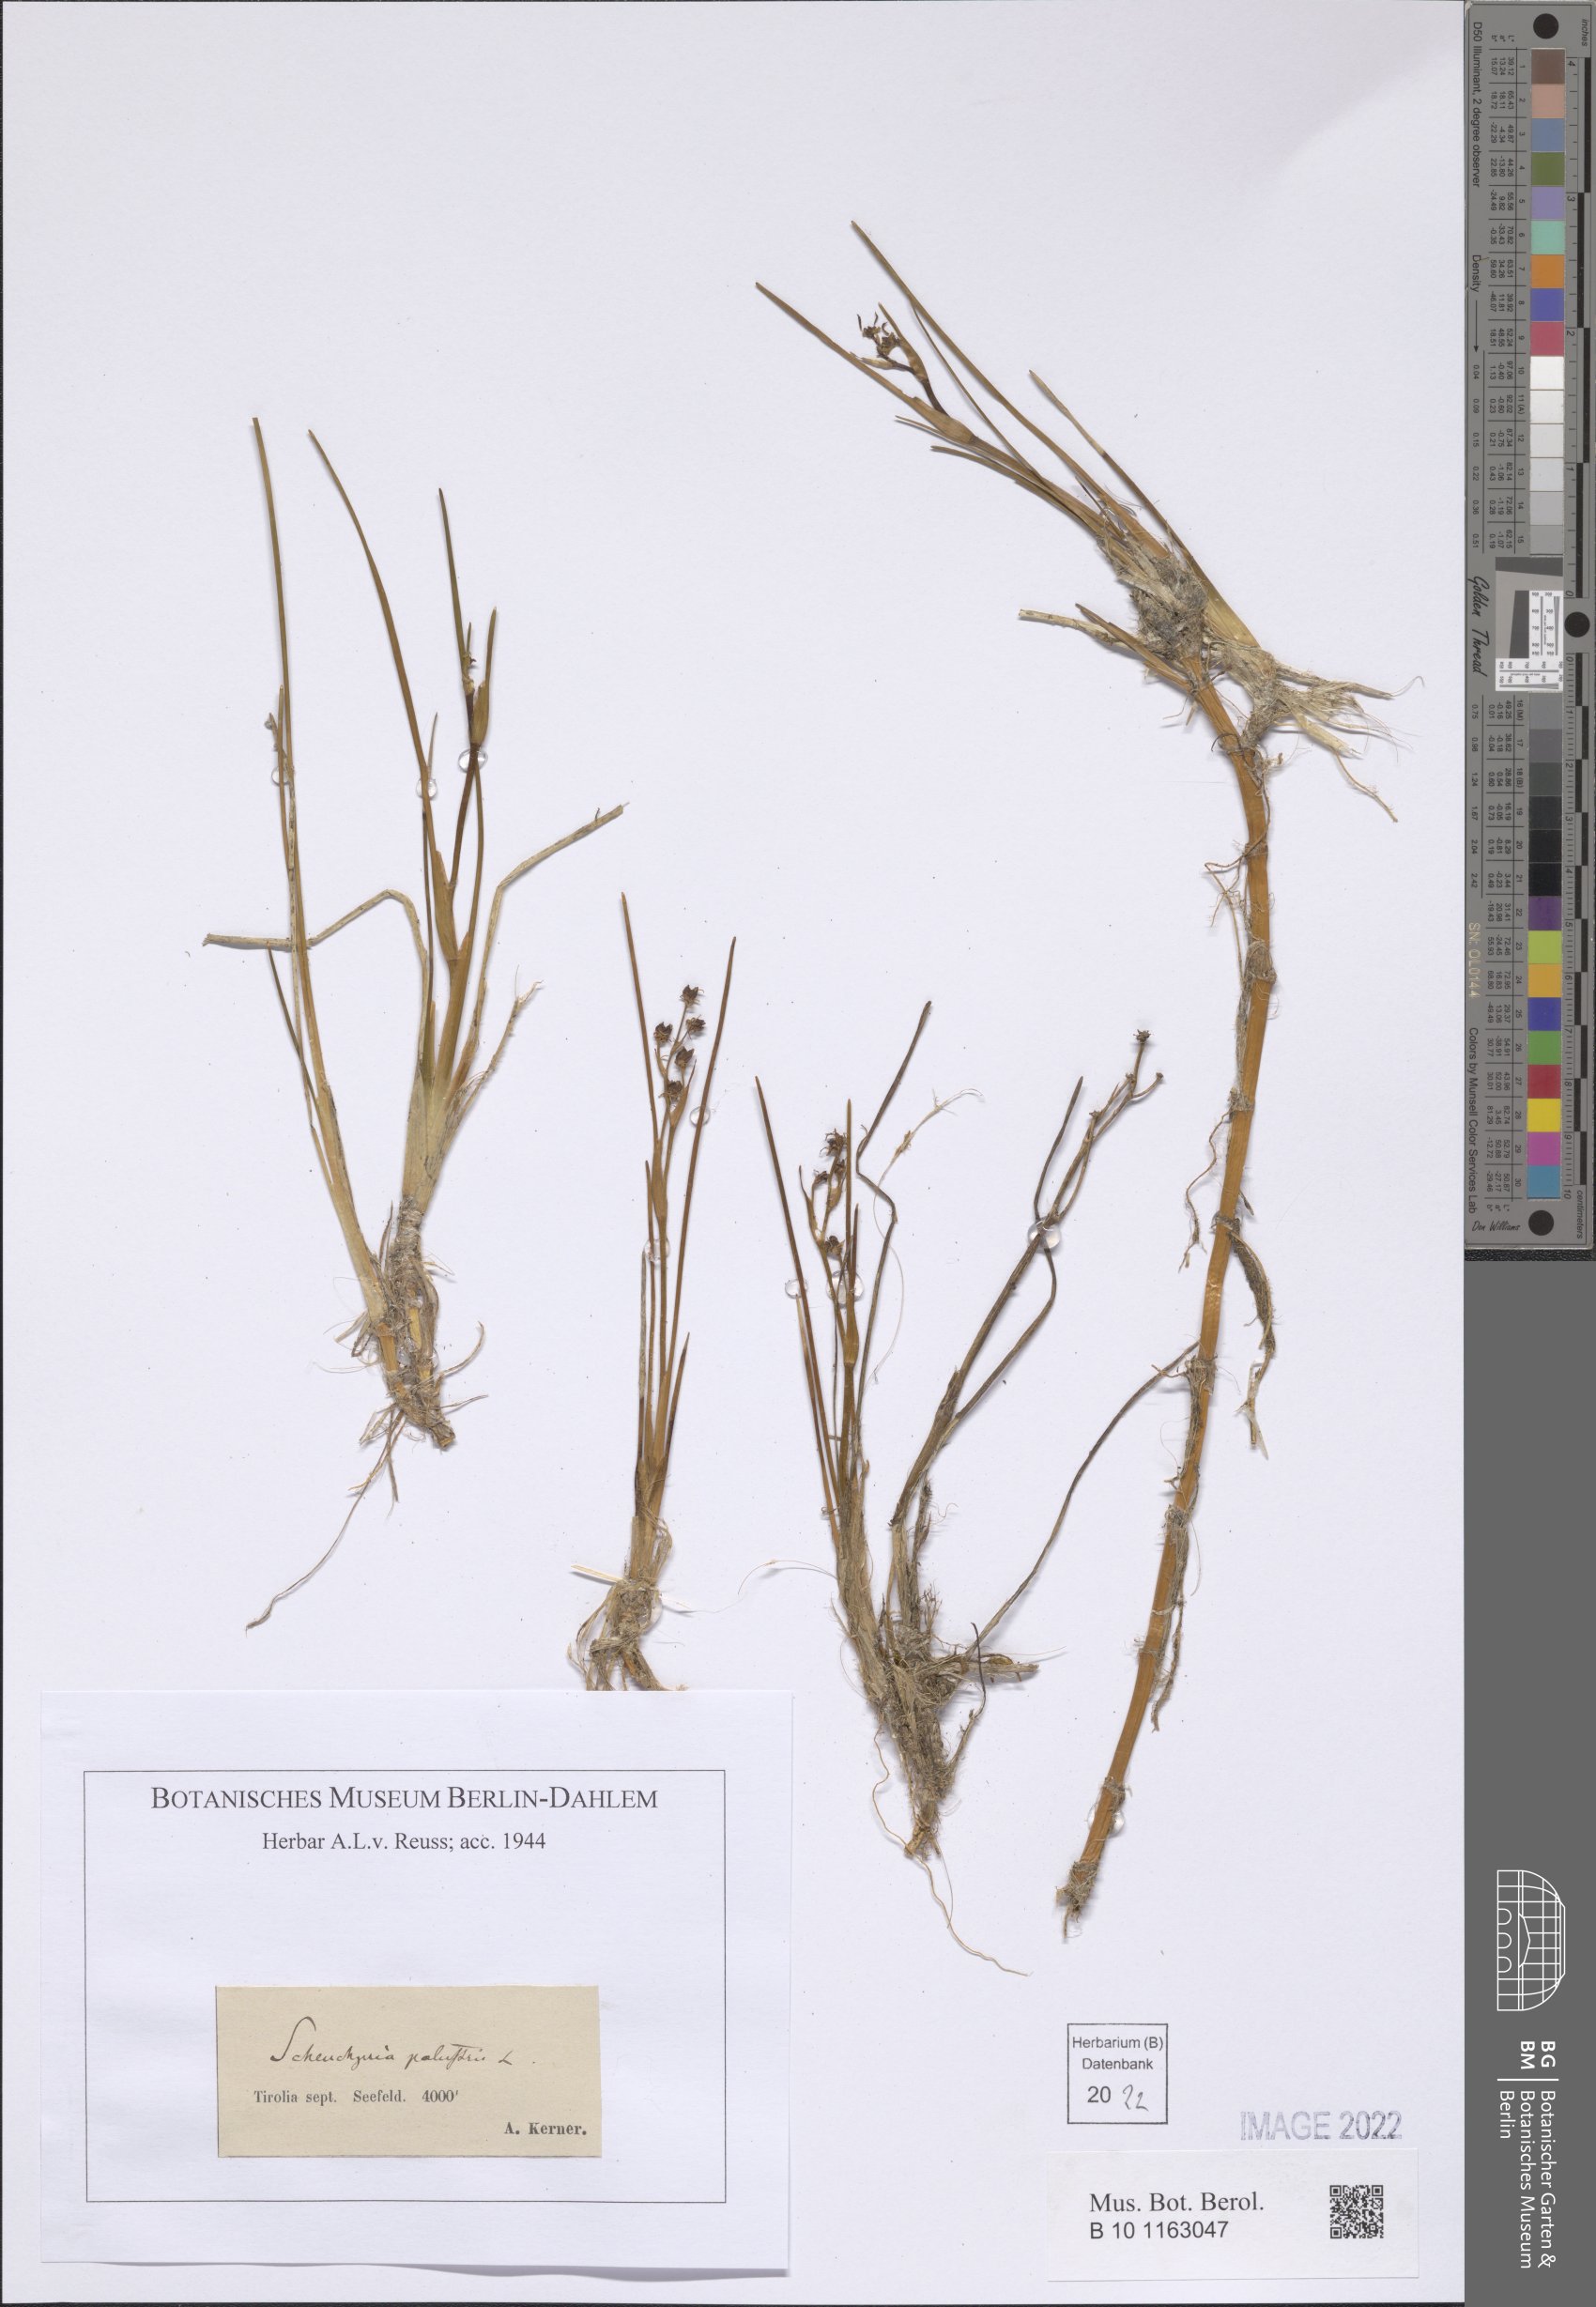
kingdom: Plantae
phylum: Tracheophyta
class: Liliopsida
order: Alismatales
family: Scheuchzeriaceae
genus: Scheuchzeria
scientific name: Scheuchzeria palustris
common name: Rannoch-rush
